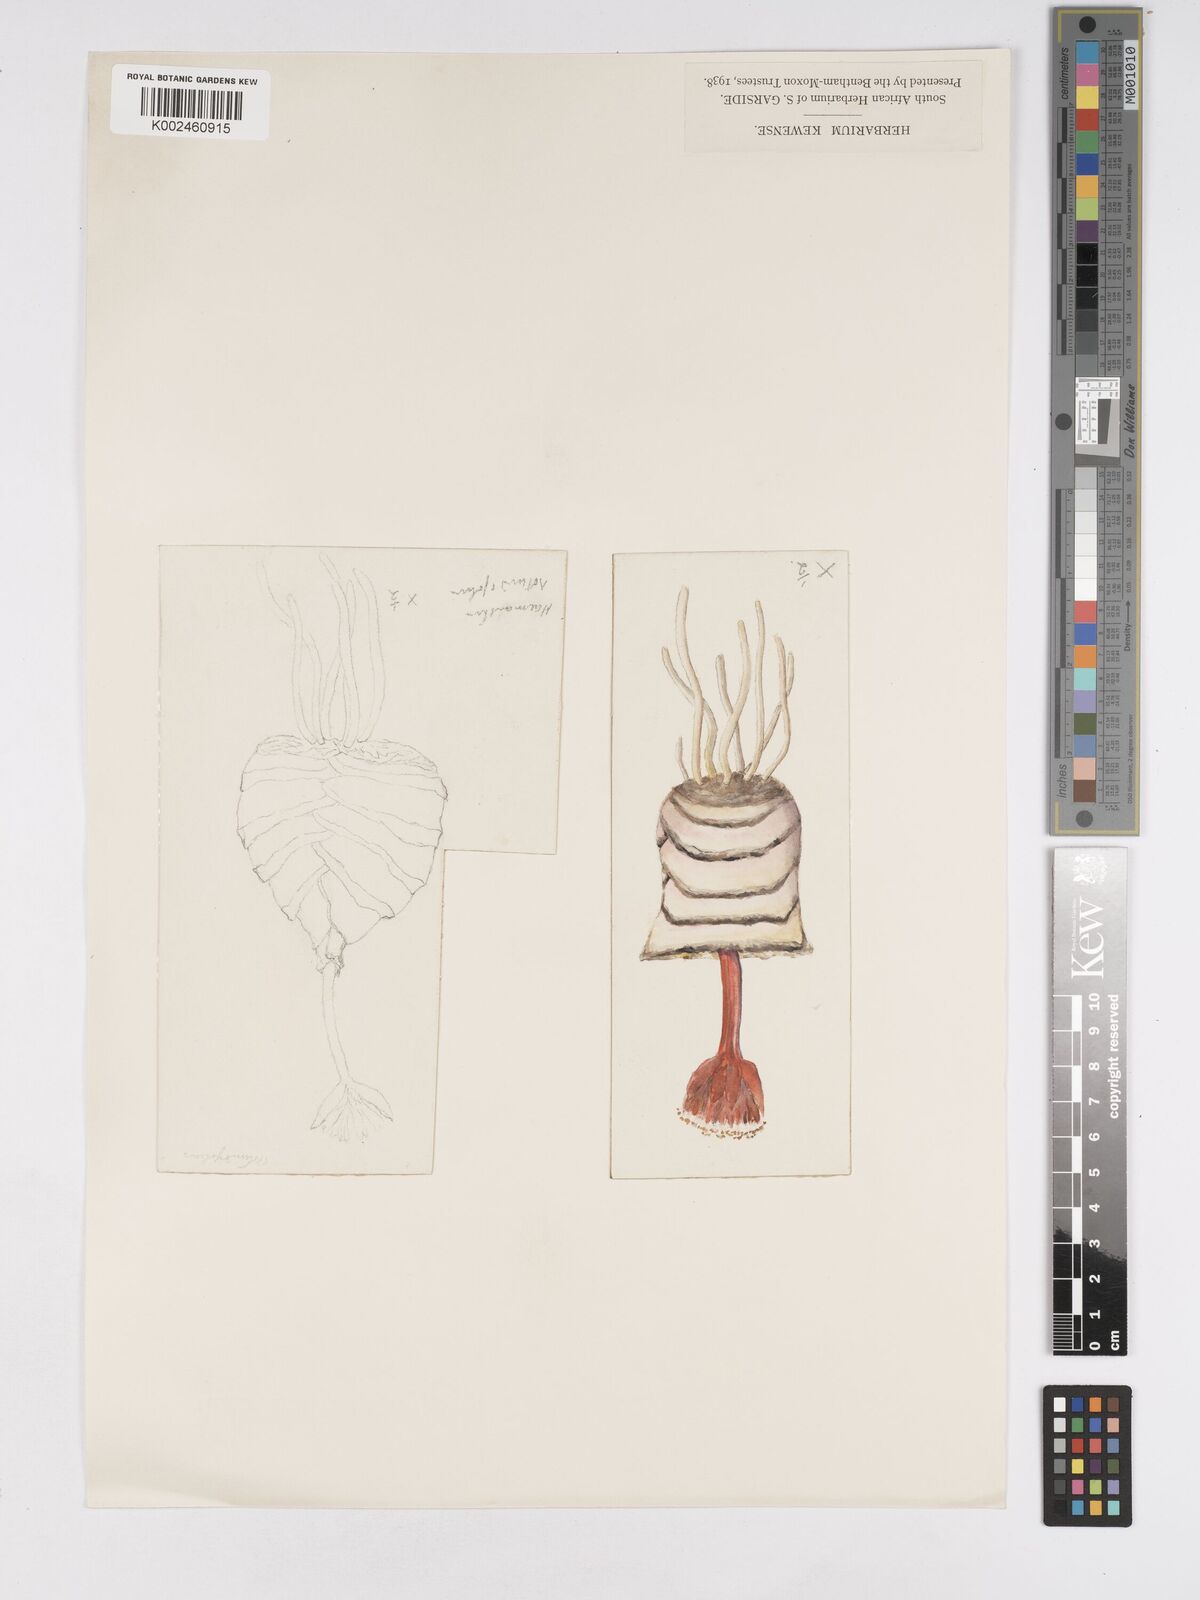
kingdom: Plantae
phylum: Tracheophyta
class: Liliopsida
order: Asparagales
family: Amaryllidaceae
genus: Haemanthus
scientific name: Haemanthus sanguineus
